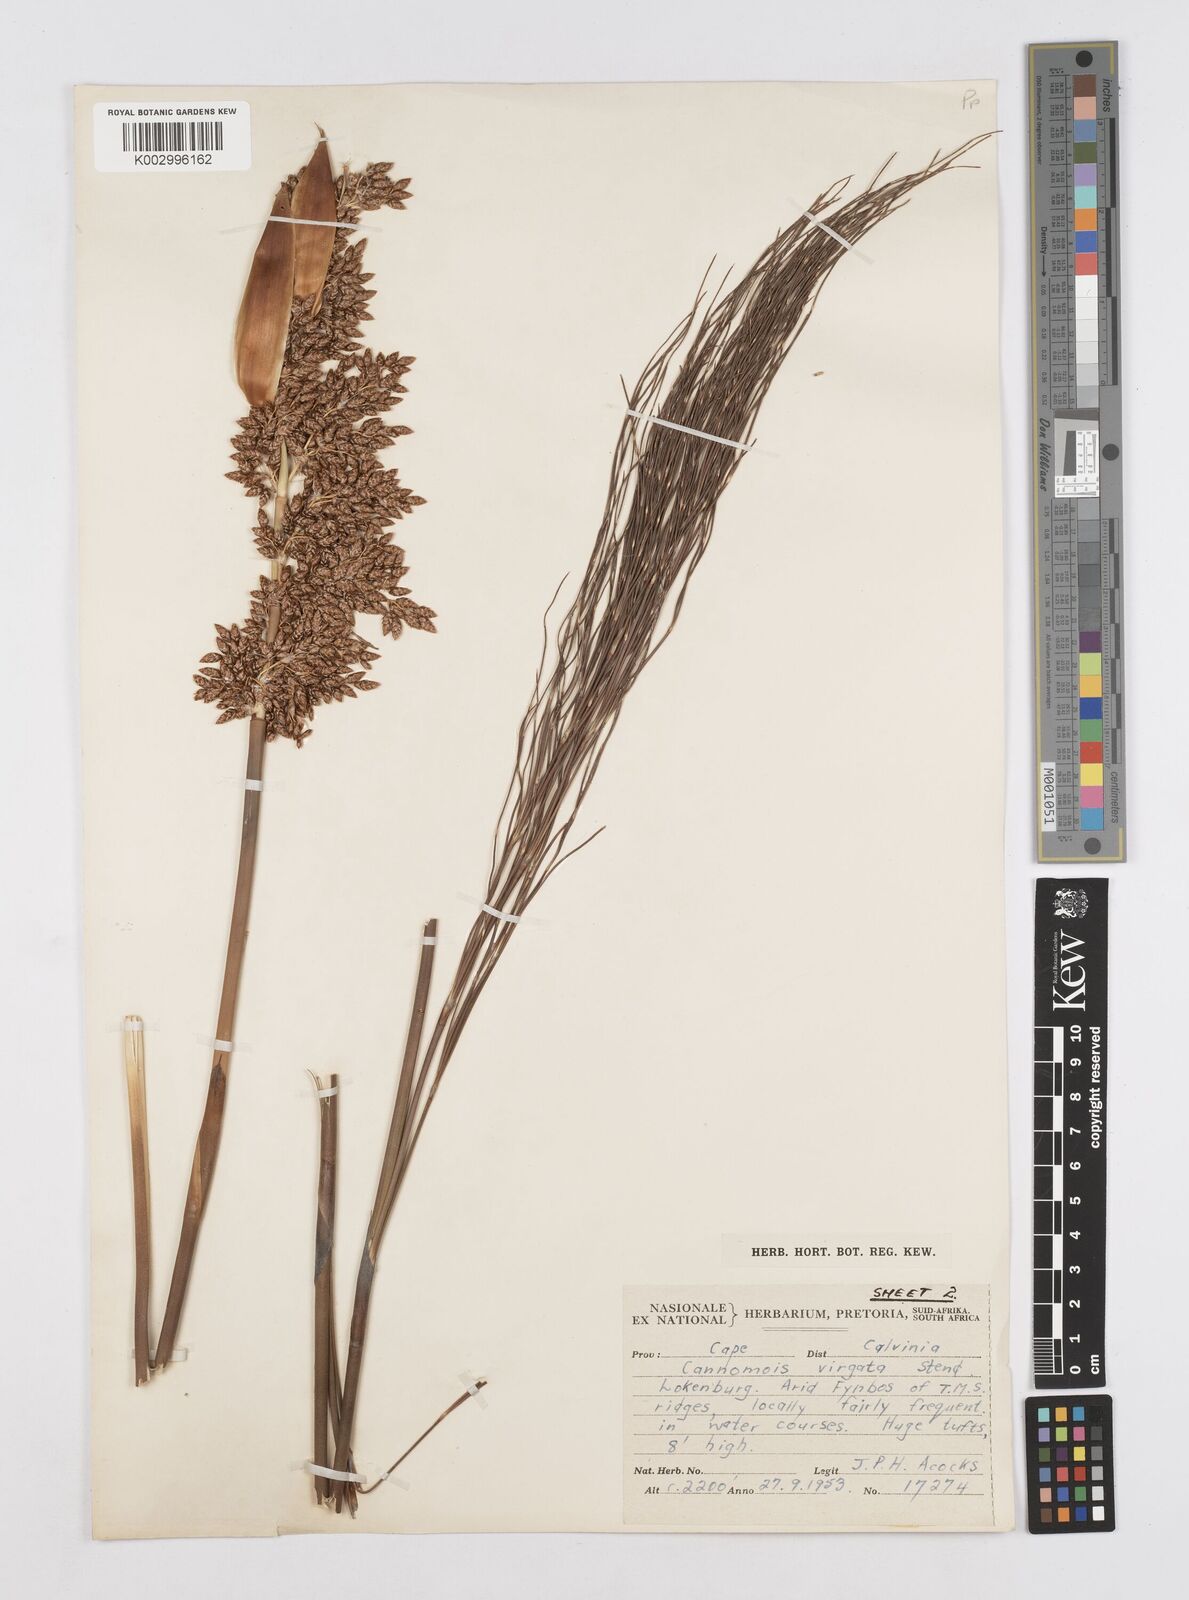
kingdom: Plantae
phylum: Tracheophyta
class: Liliopsida
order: Poales
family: Restionaceae
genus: Cannomois
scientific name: Cannomois virgata
